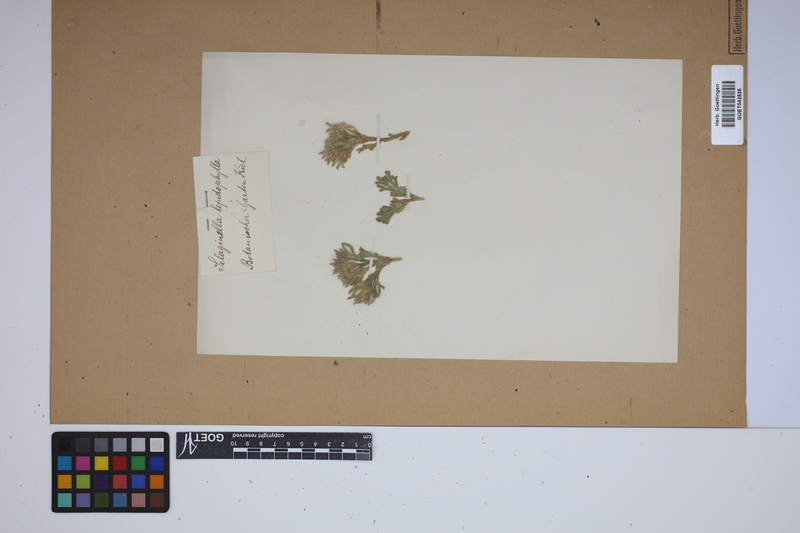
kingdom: Plantae
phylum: Tracheophyta
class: Lycopodiopsida
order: Selaginellales
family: Selaginellaceae
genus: Selaginella
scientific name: Selaginella lepidophylla
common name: Rose-of-jericho
